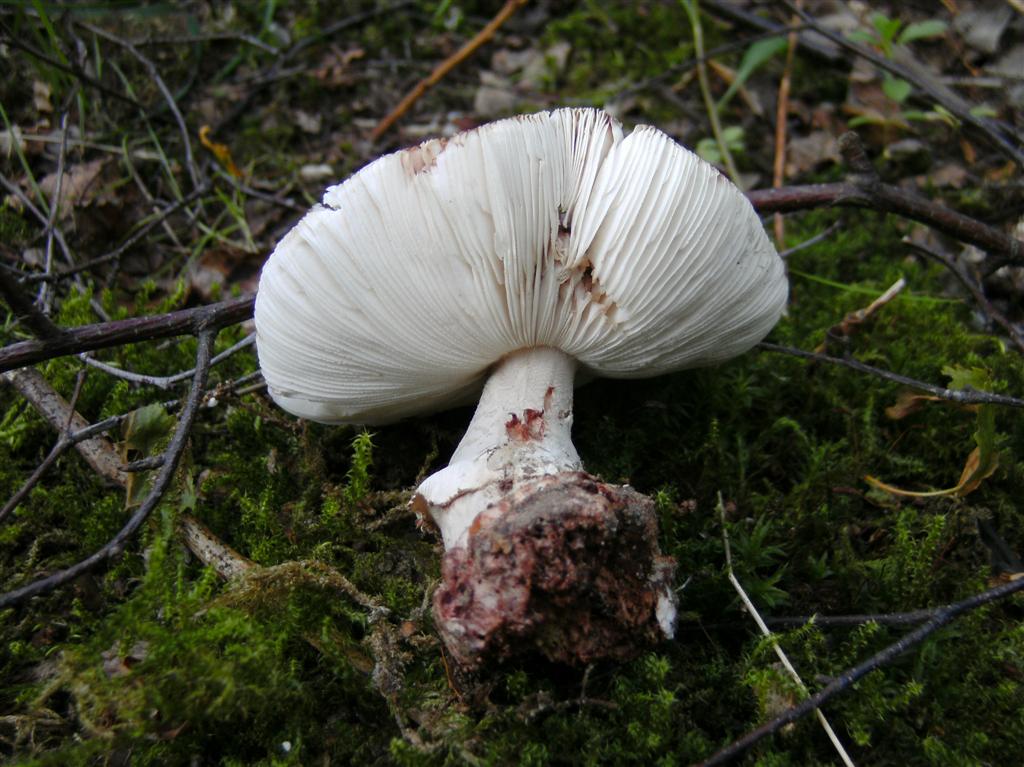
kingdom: Fungi
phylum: Basidiomycota
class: Agaricomycetes
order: Agaricales
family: Amanitaceae
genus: Amanita
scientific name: Amanita rubescens
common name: rødmende fluesvamp
